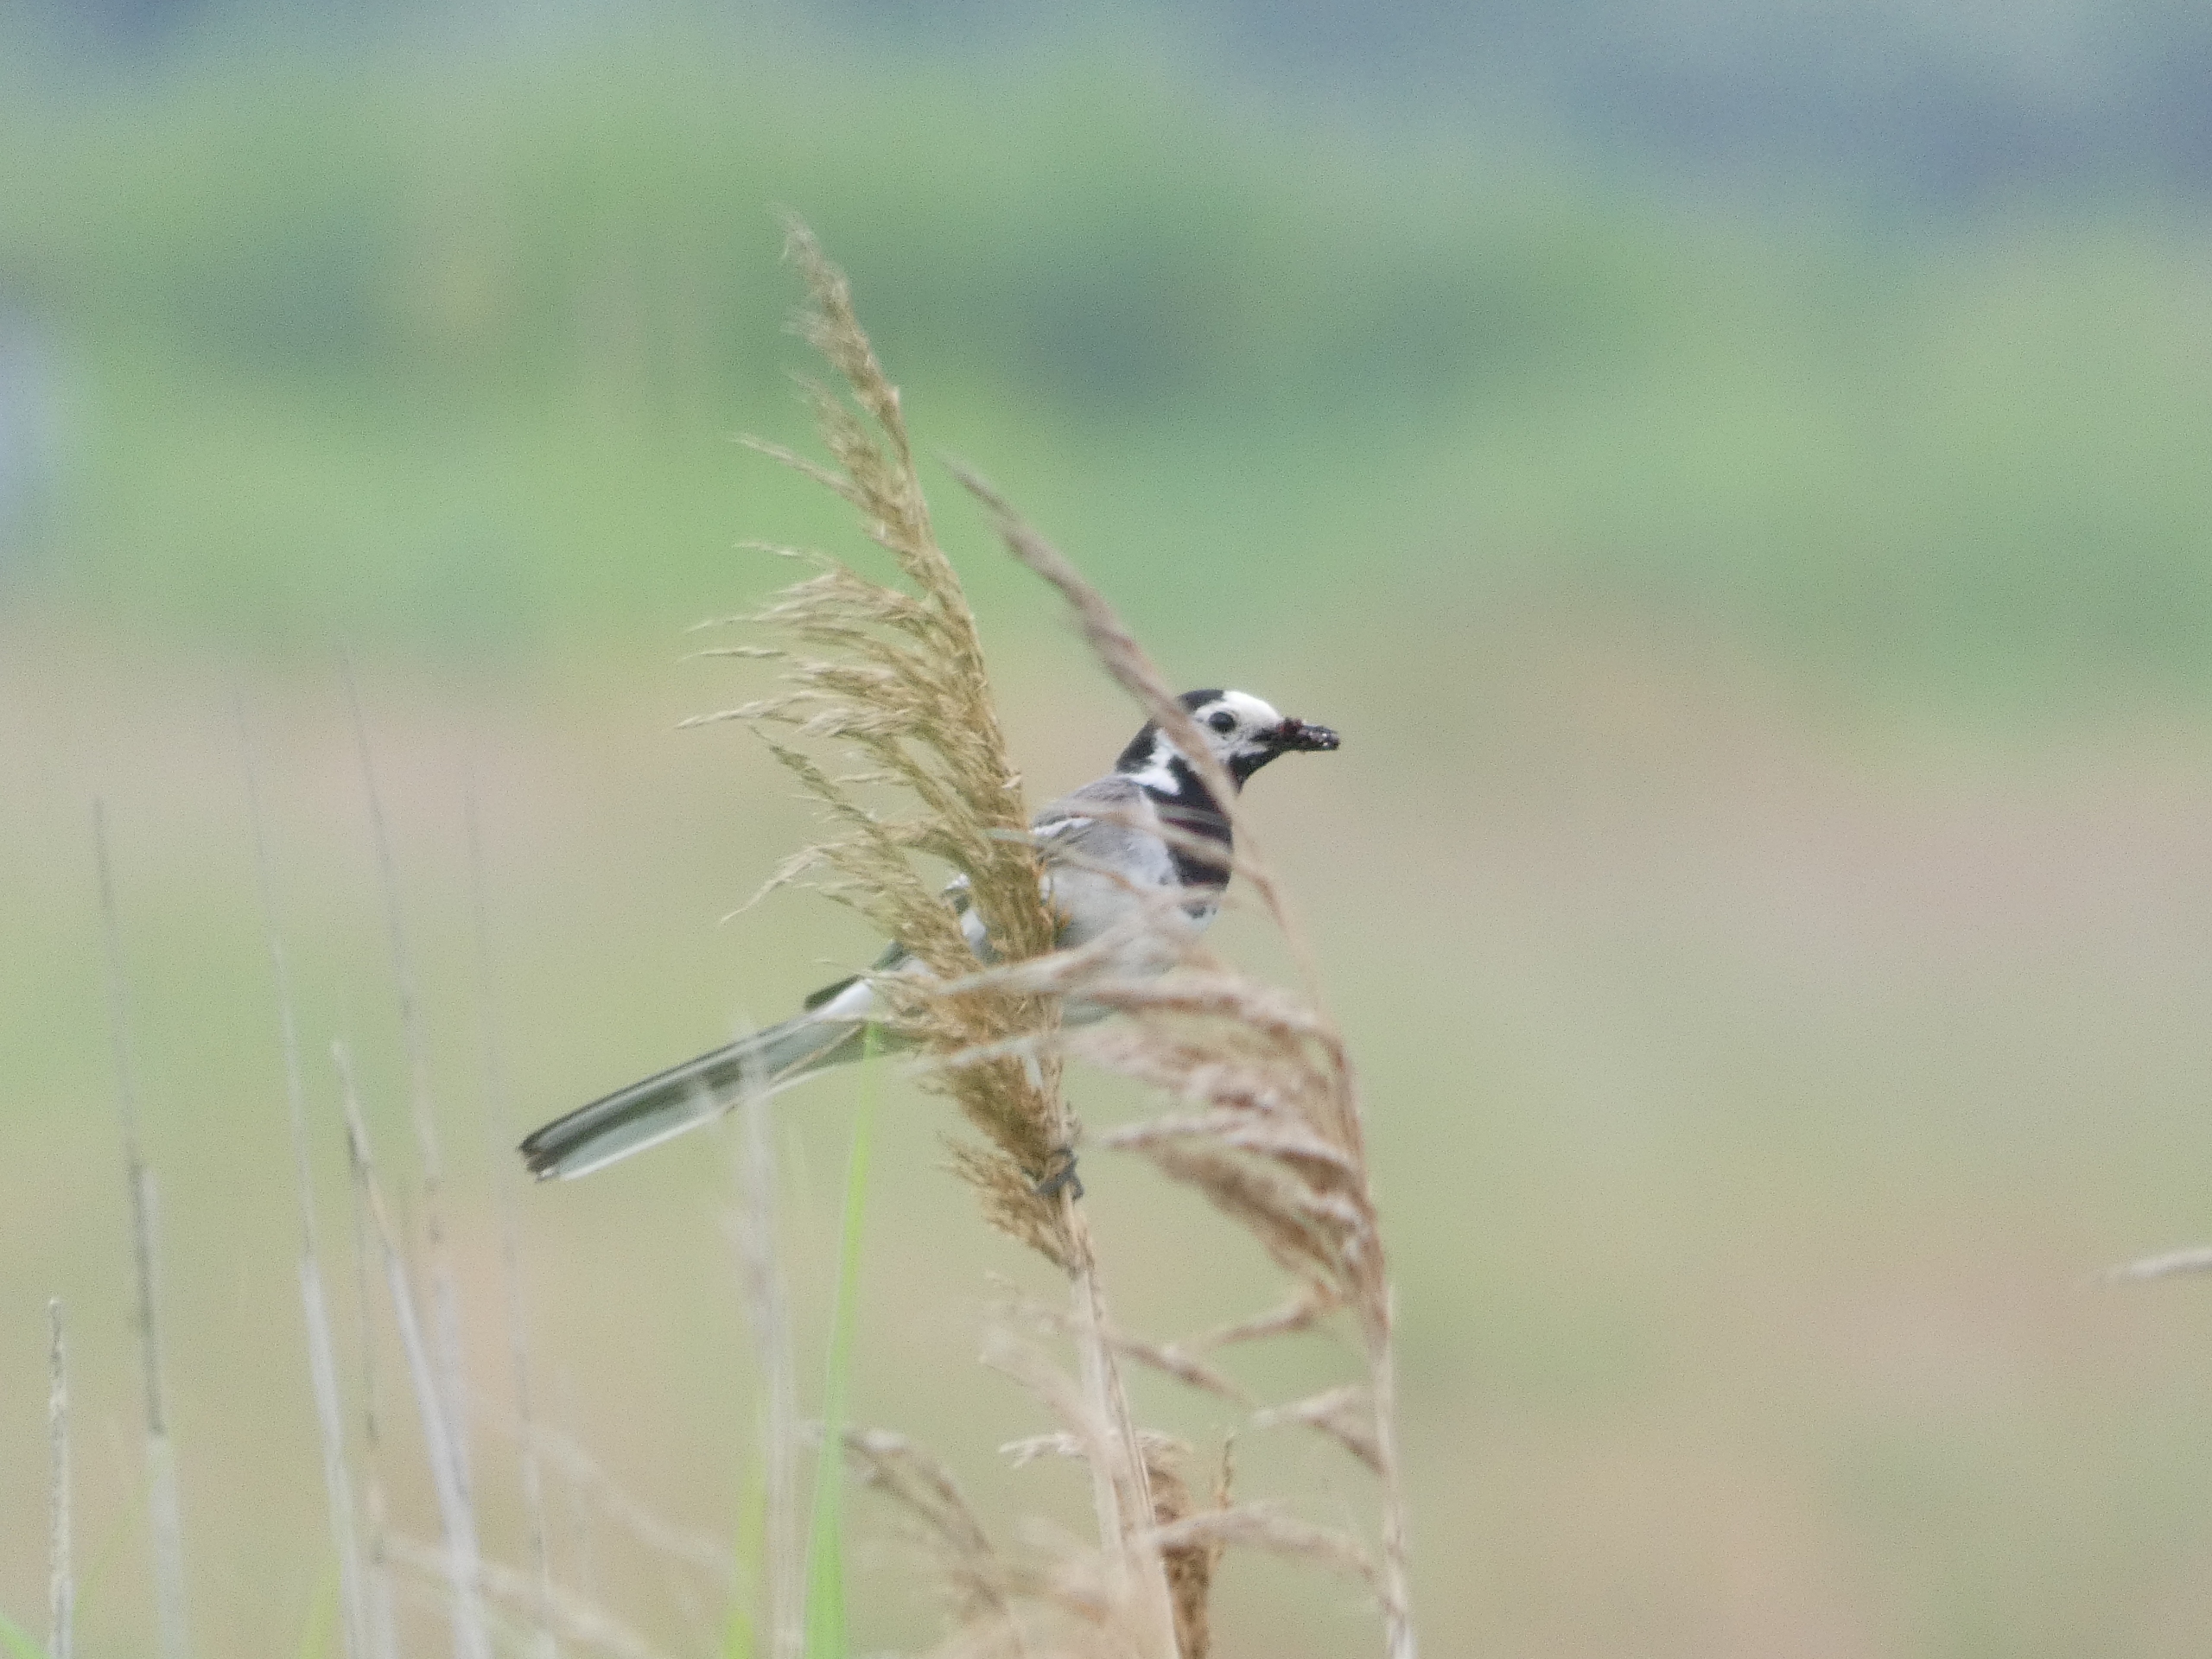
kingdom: Animalia
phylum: Chordata
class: Aves
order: Passeriformes
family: Motacillidae
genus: Motacilla
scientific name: Motacilla alba
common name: Hvid vipstjert
